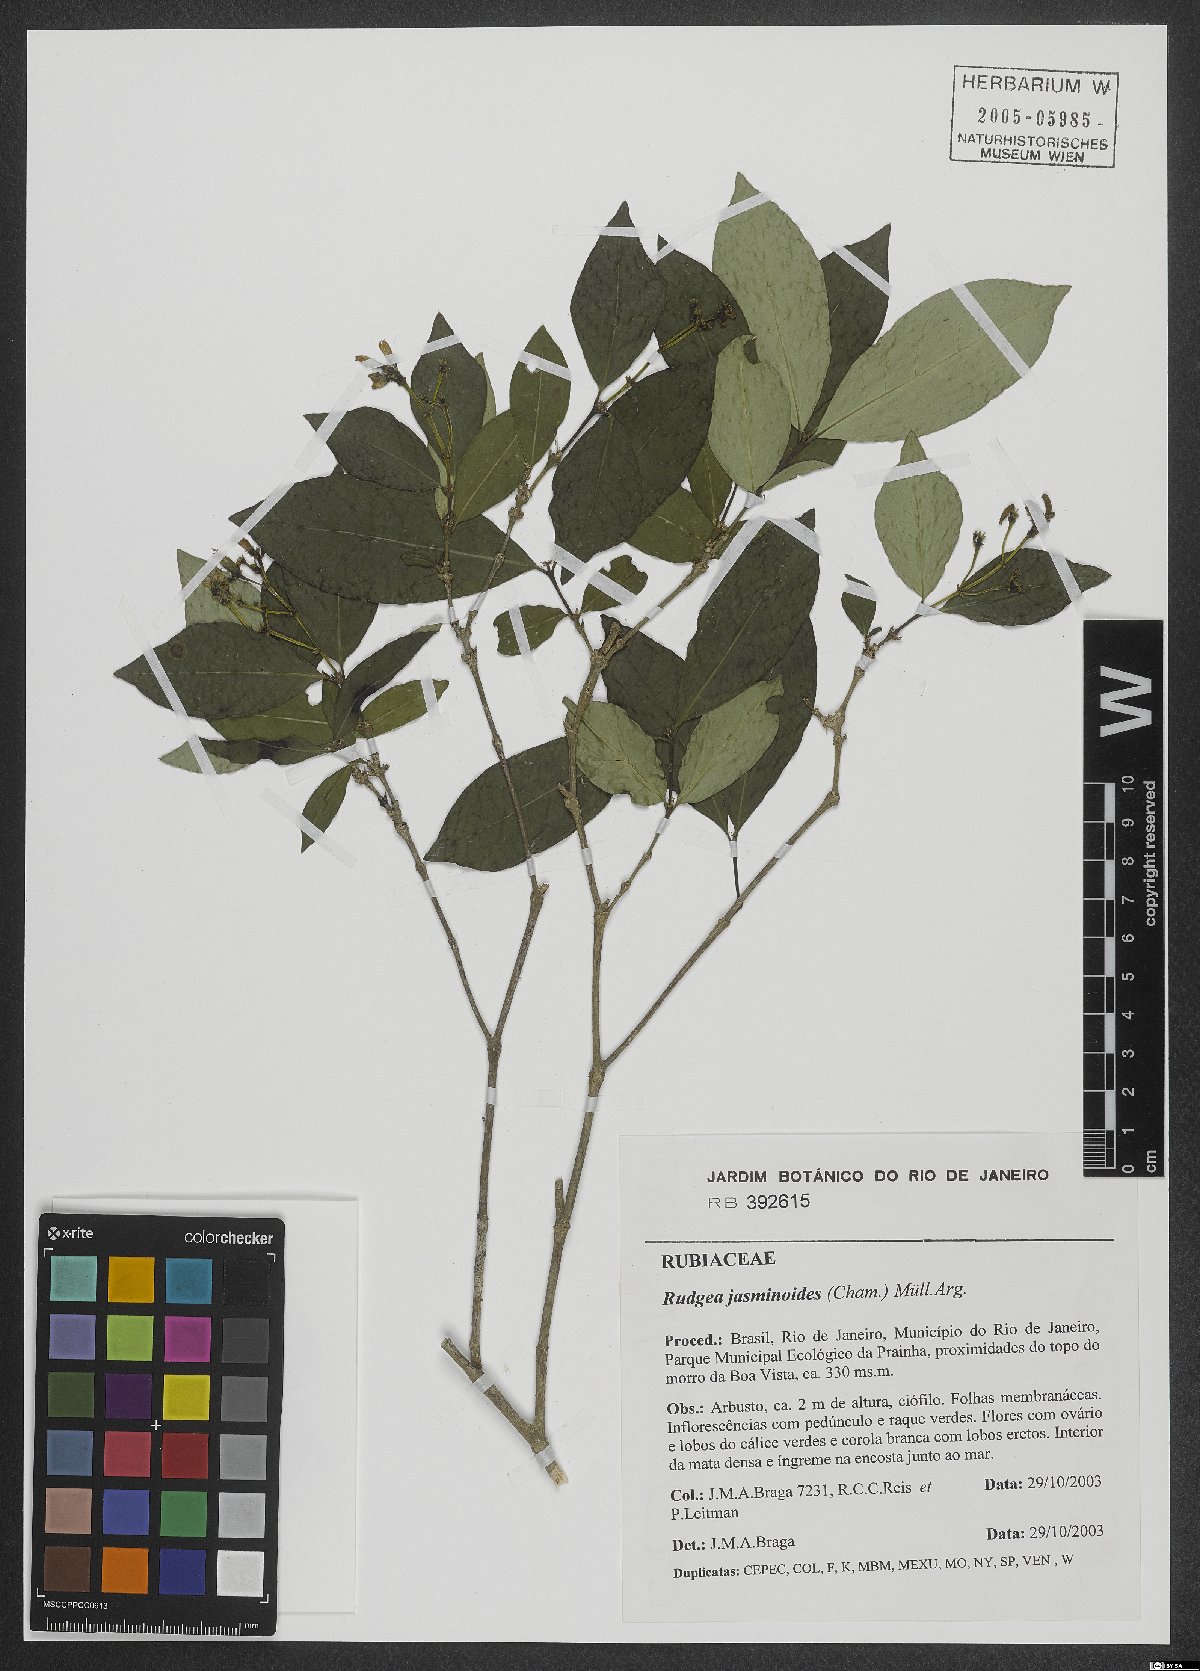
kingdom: Plantae
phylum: Tracheophyta
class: Magnoliopsida
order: Gentianales
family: Rubiaceae
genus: Rudgea
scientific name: Rudgea jasminoides
